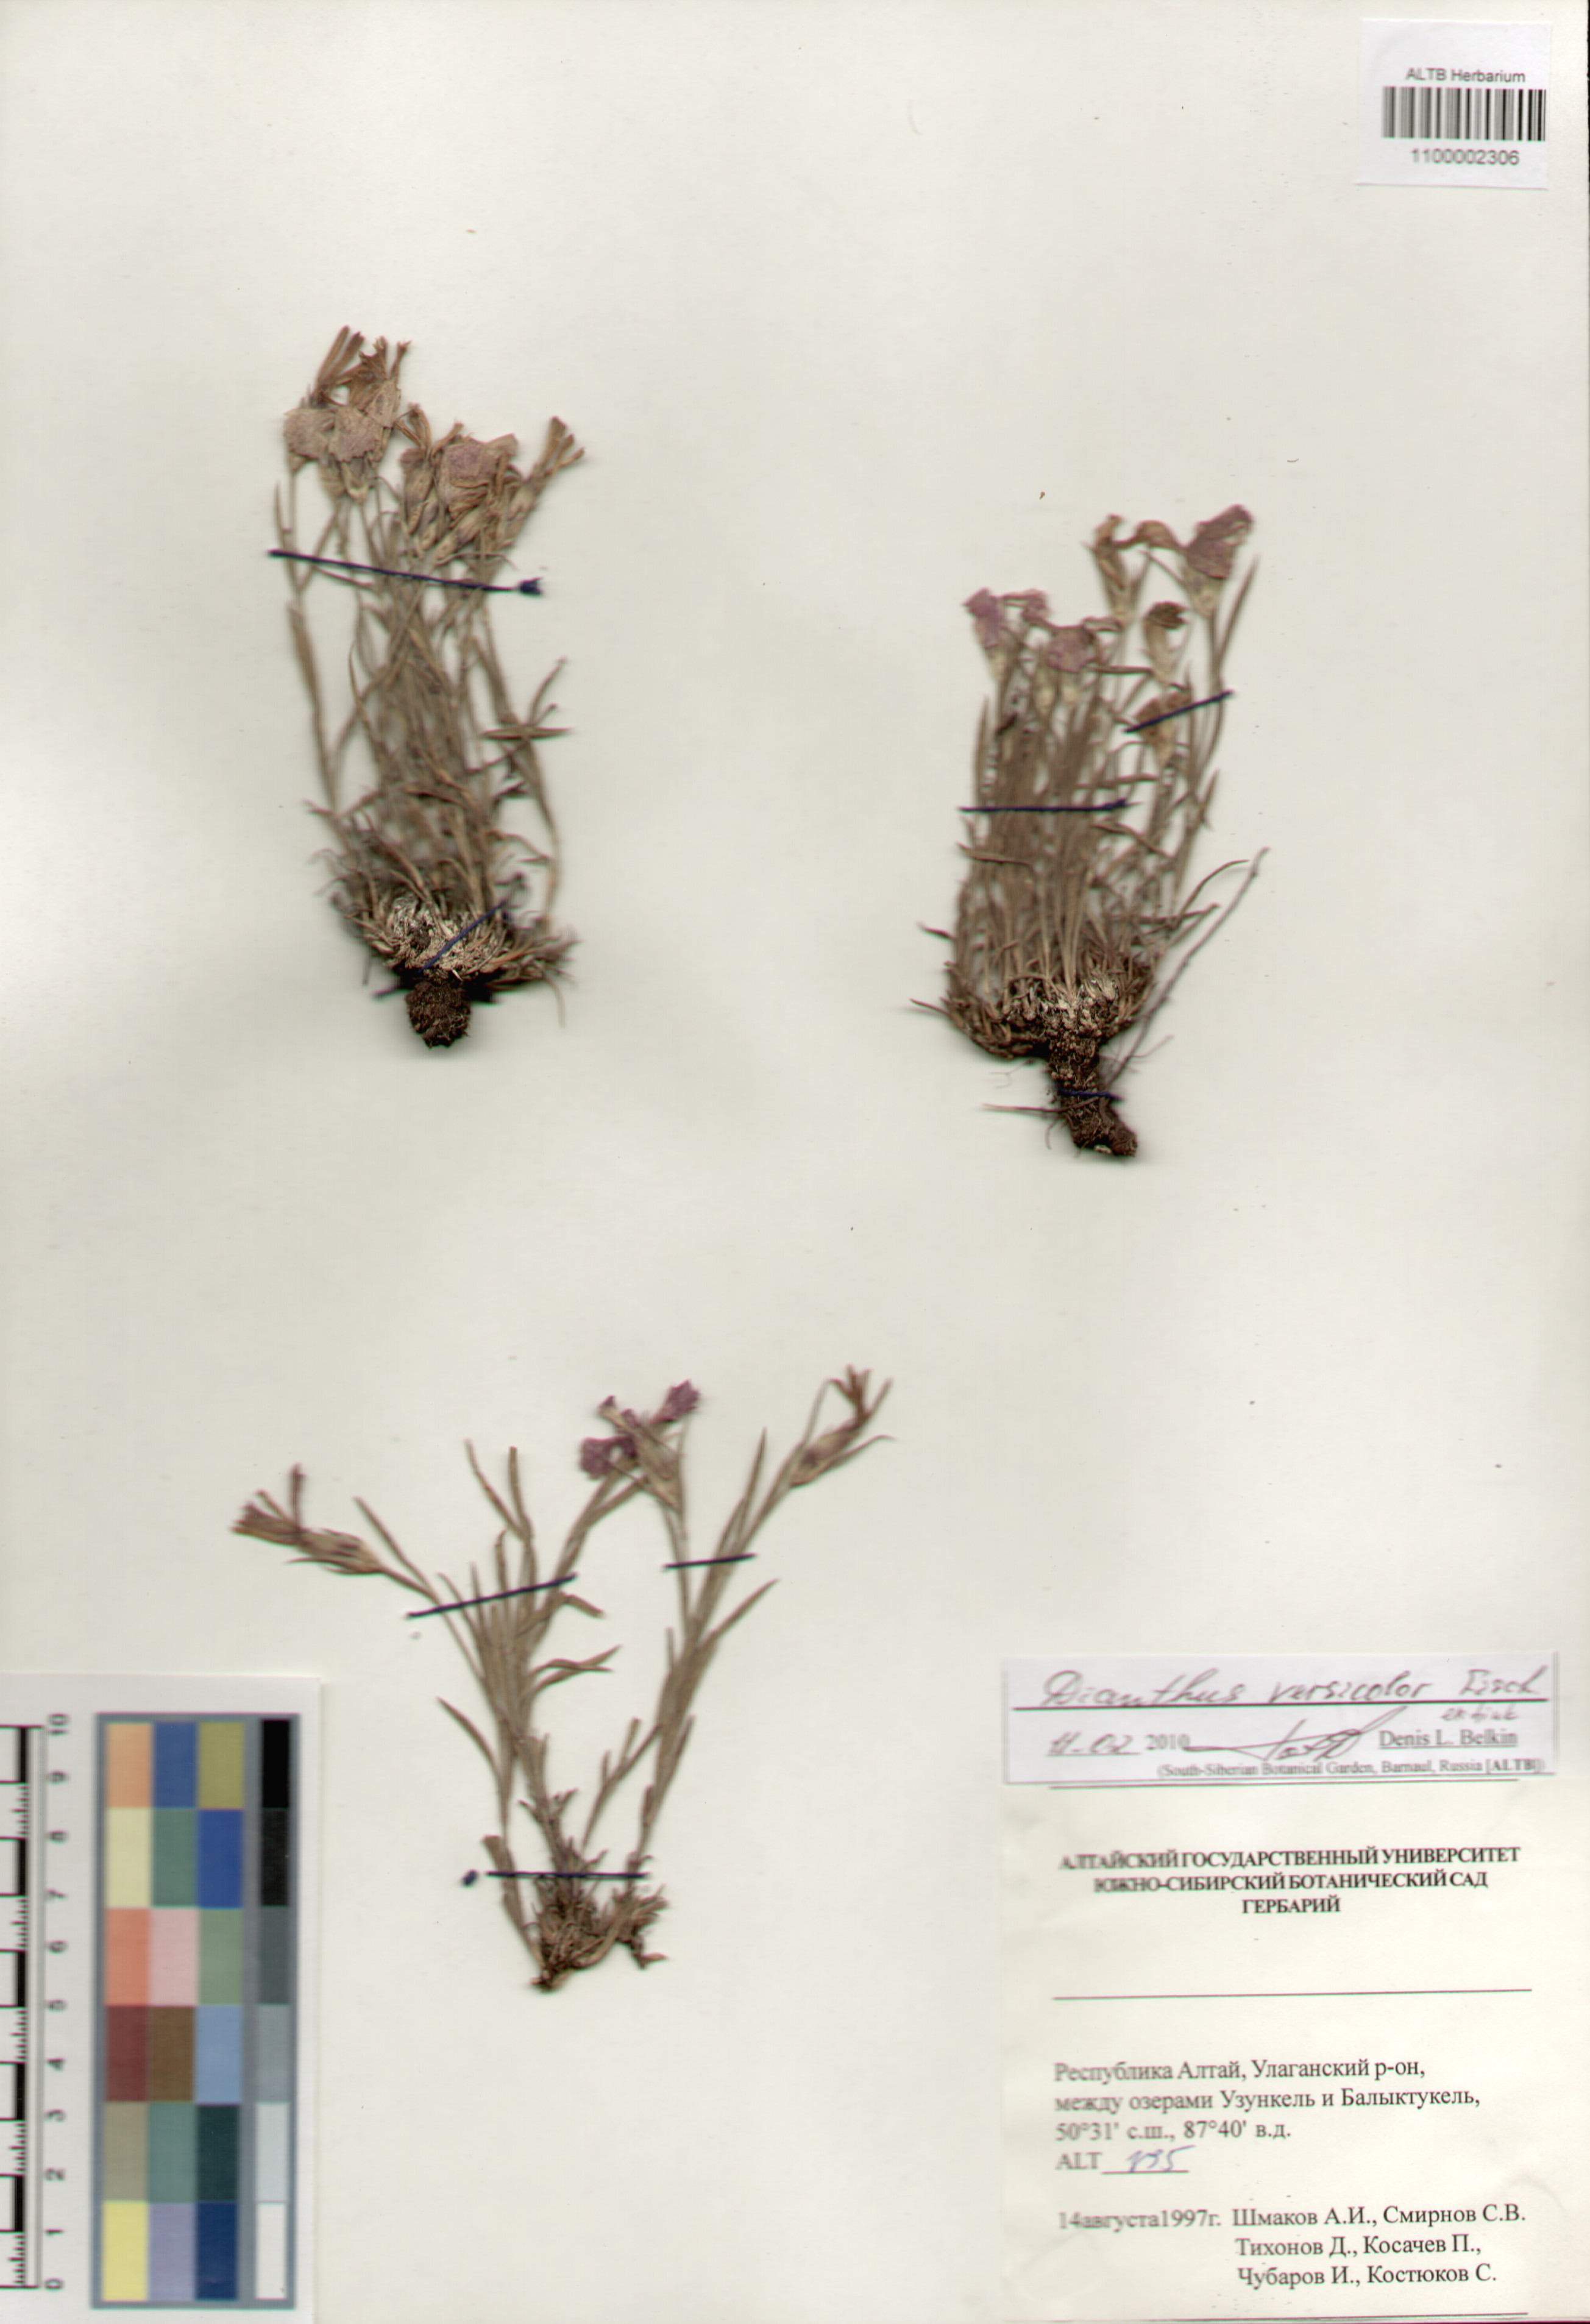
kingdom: Plantae
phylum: Tracheophyta
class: Magnoliopsida
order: Caryophyllales
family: Caryophyllaceae
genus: Dianthus
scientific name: Dianthus chinensis
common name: Rainbow pink
